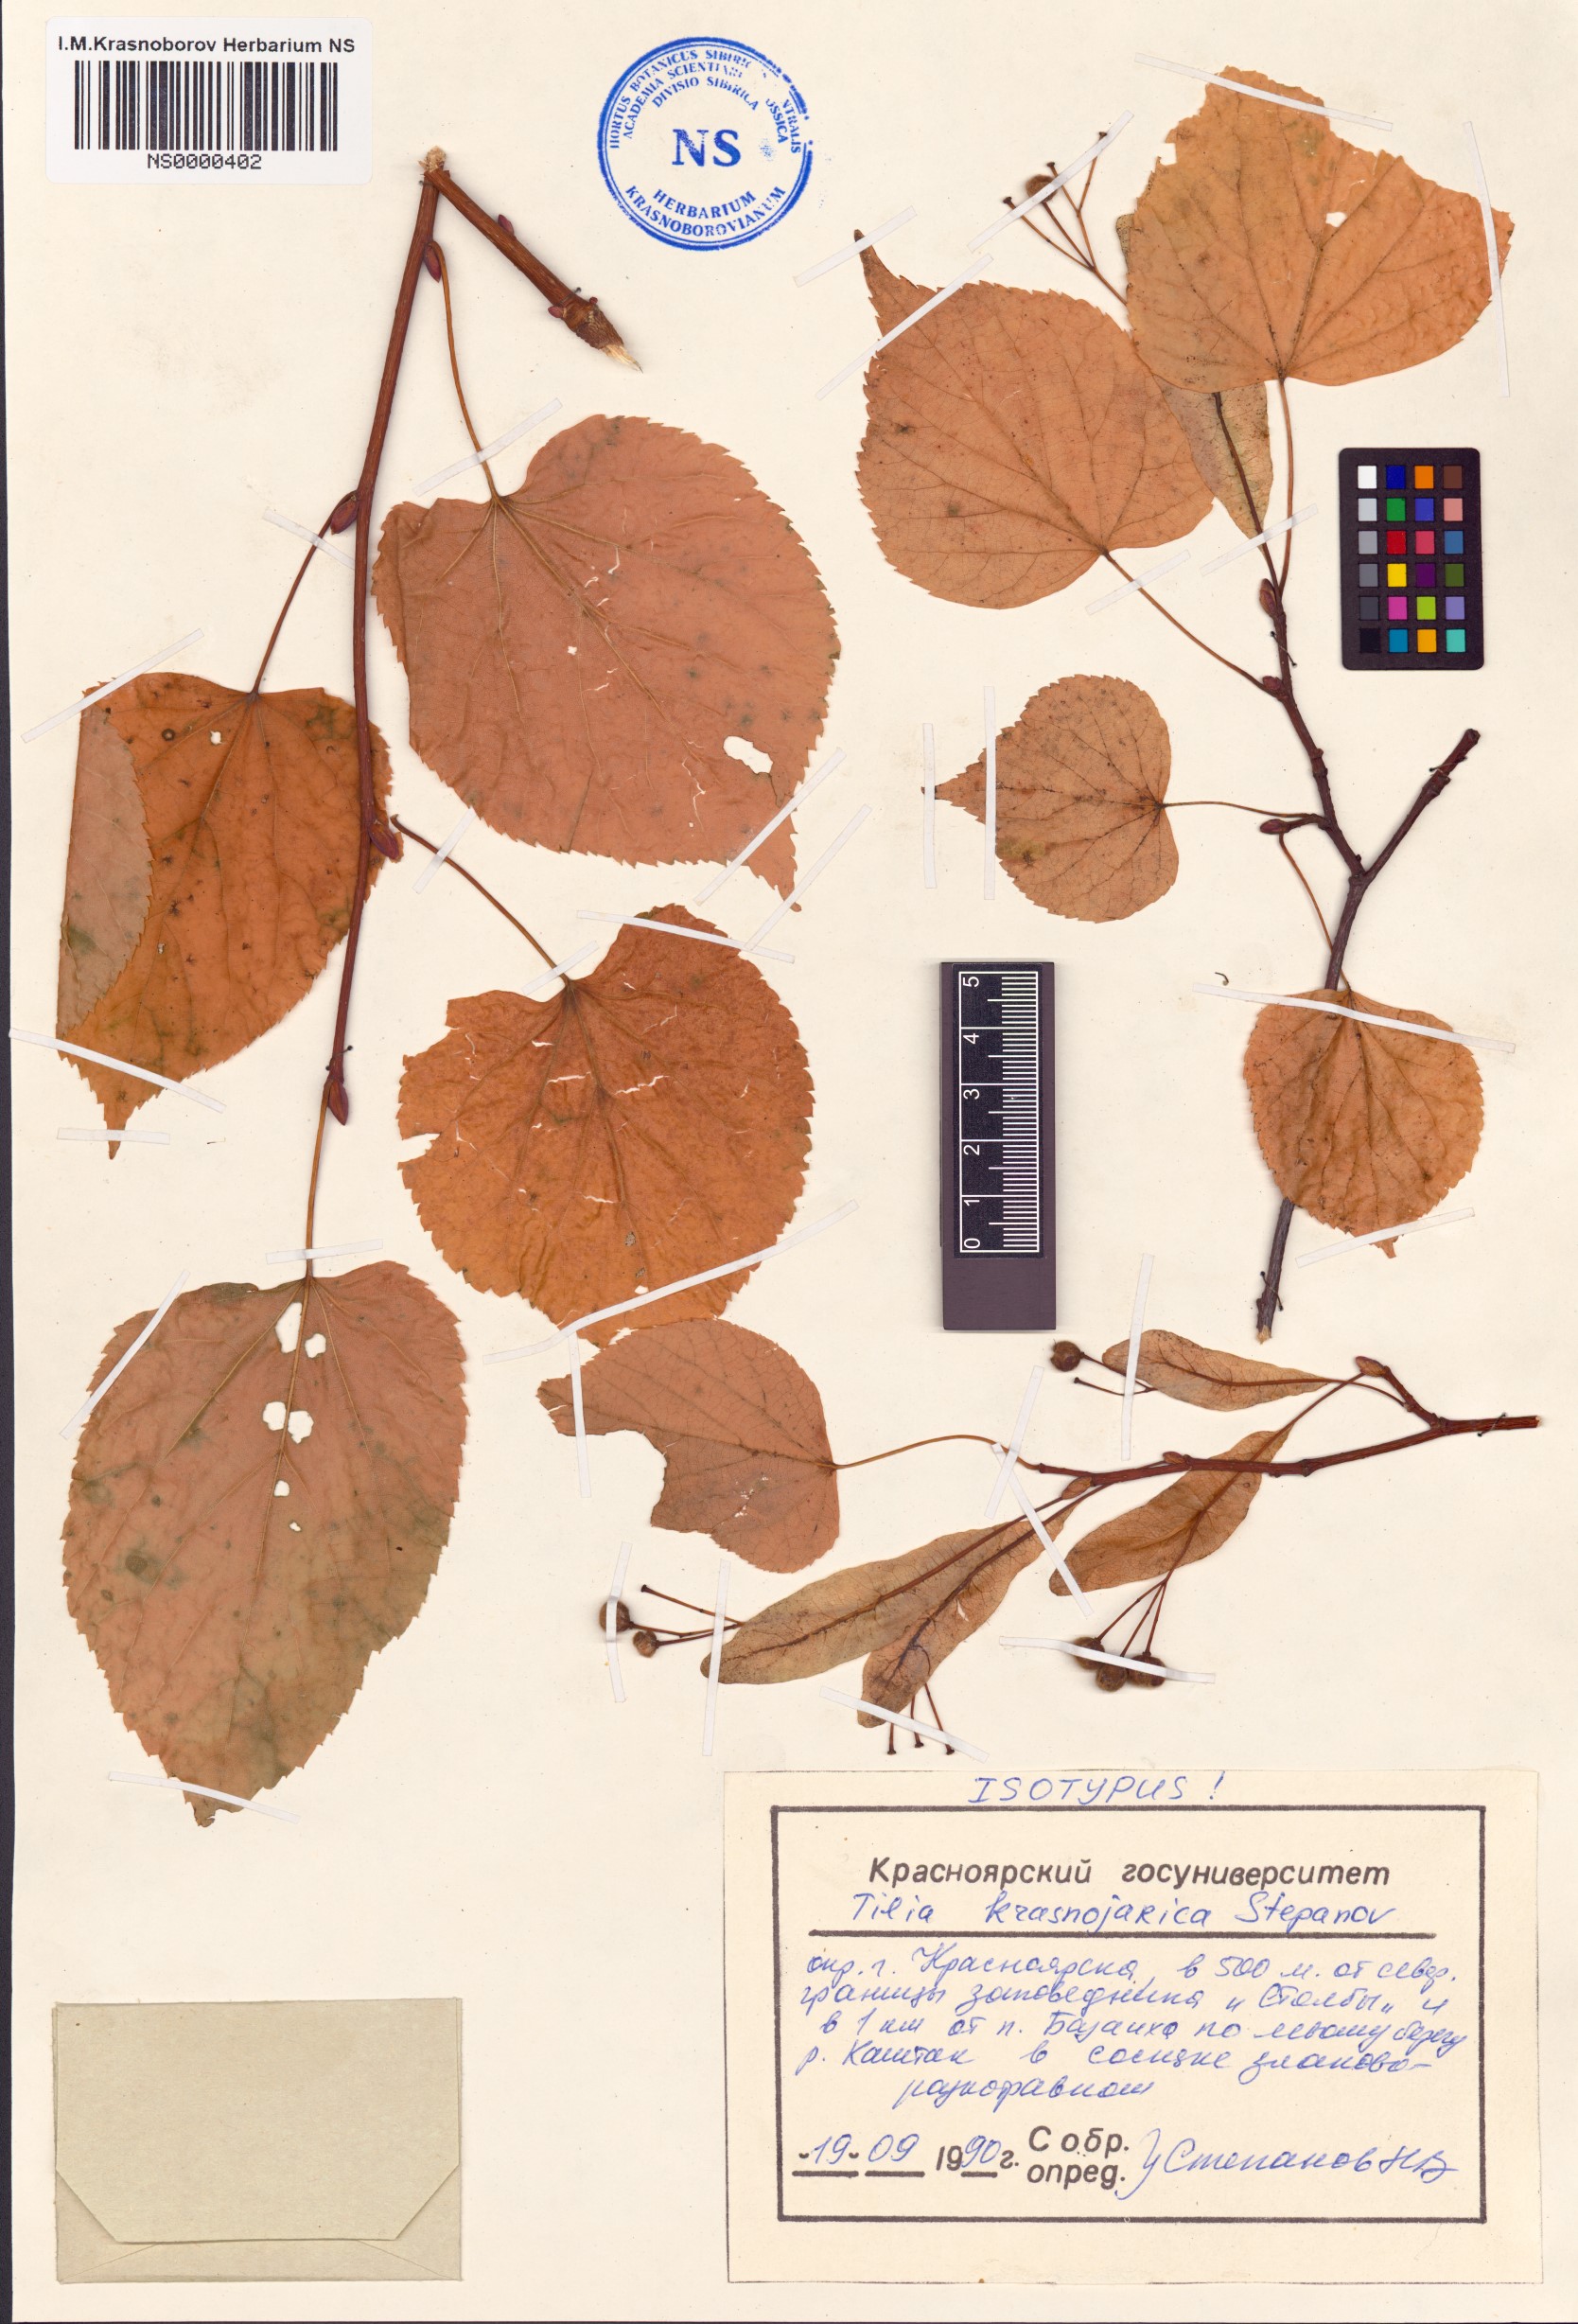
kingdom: Plantae
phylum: Tracheophyta
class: Magnoliopsida
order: Malvales
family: Malvaceae
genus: Tilia
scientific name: Tilia
